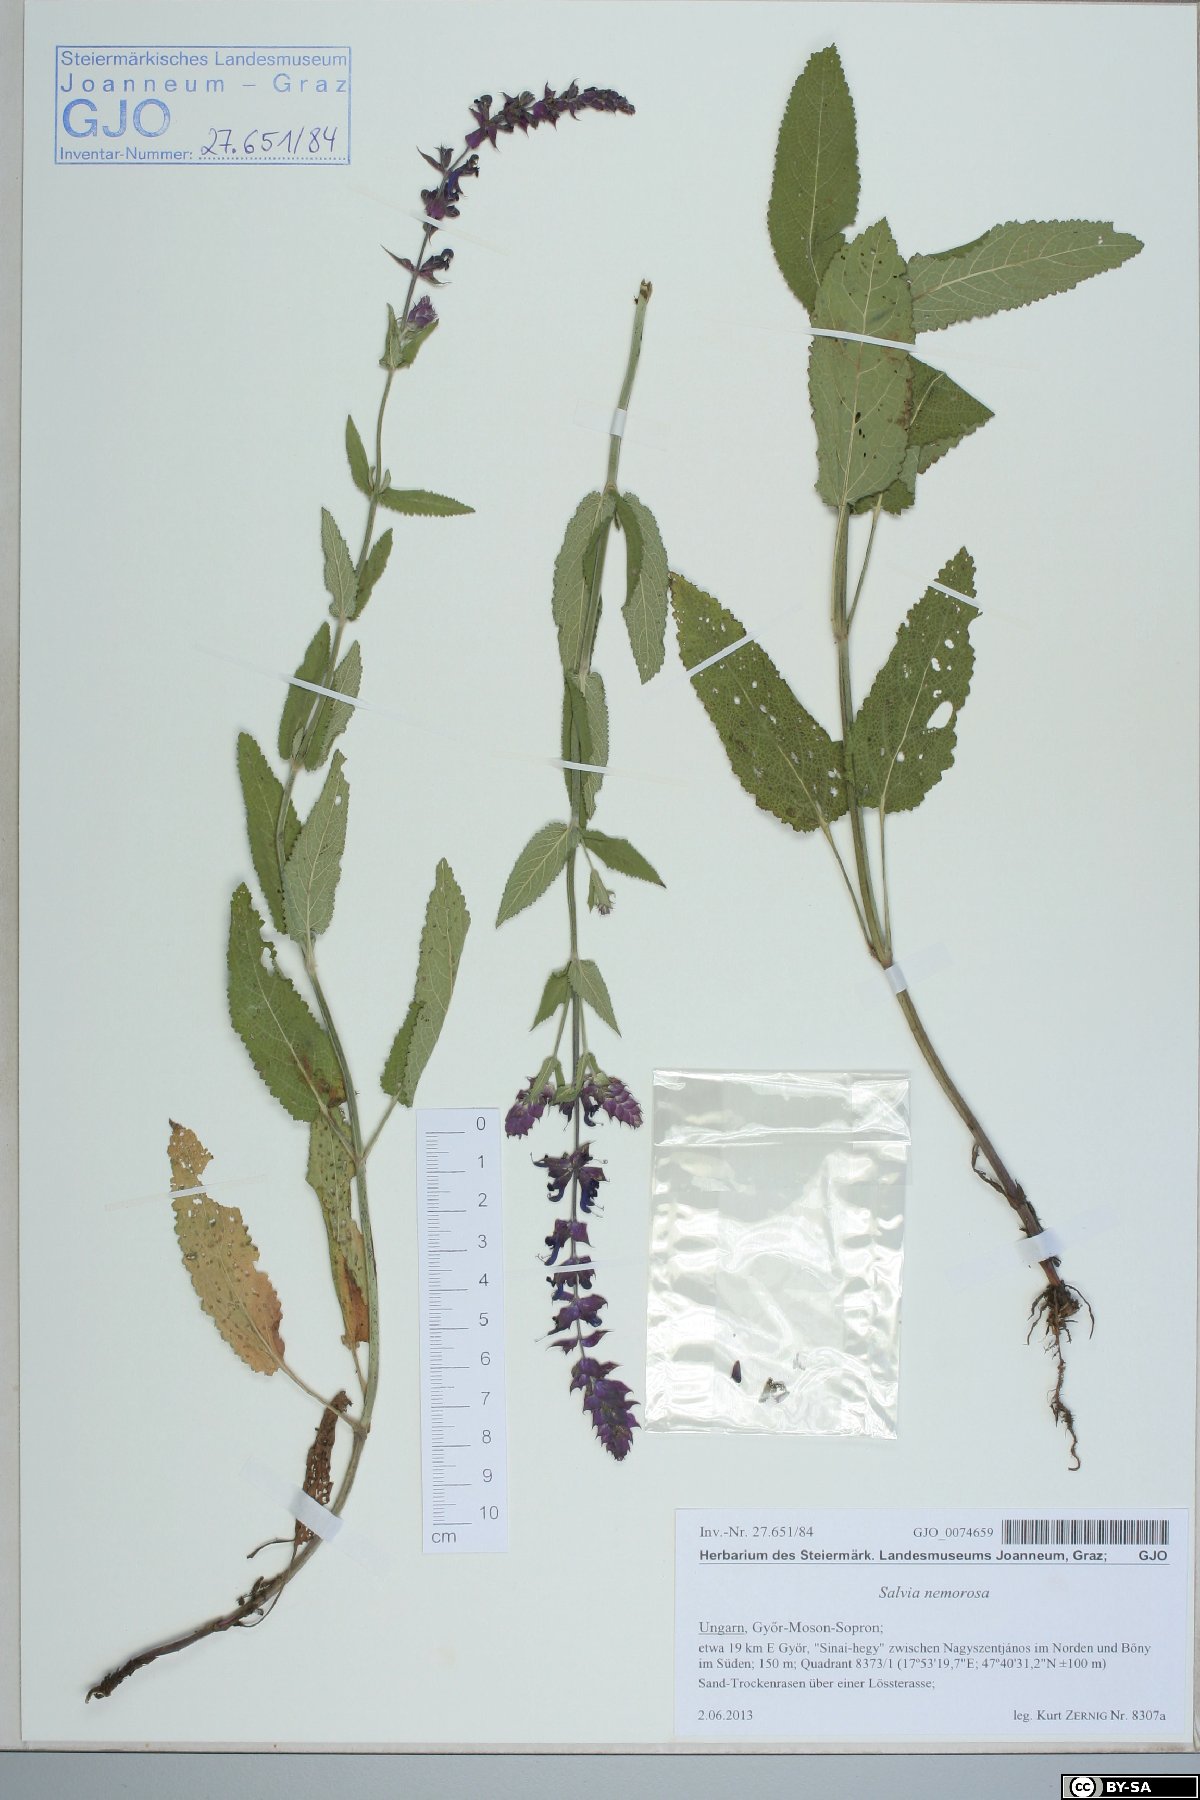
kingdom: Plantae
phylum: Tracheophyta
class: Magnoliopsida
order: Lamiales
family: Lamiaceae
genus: Salvia
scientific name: Salvia nemorosa
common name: Balkan clary
